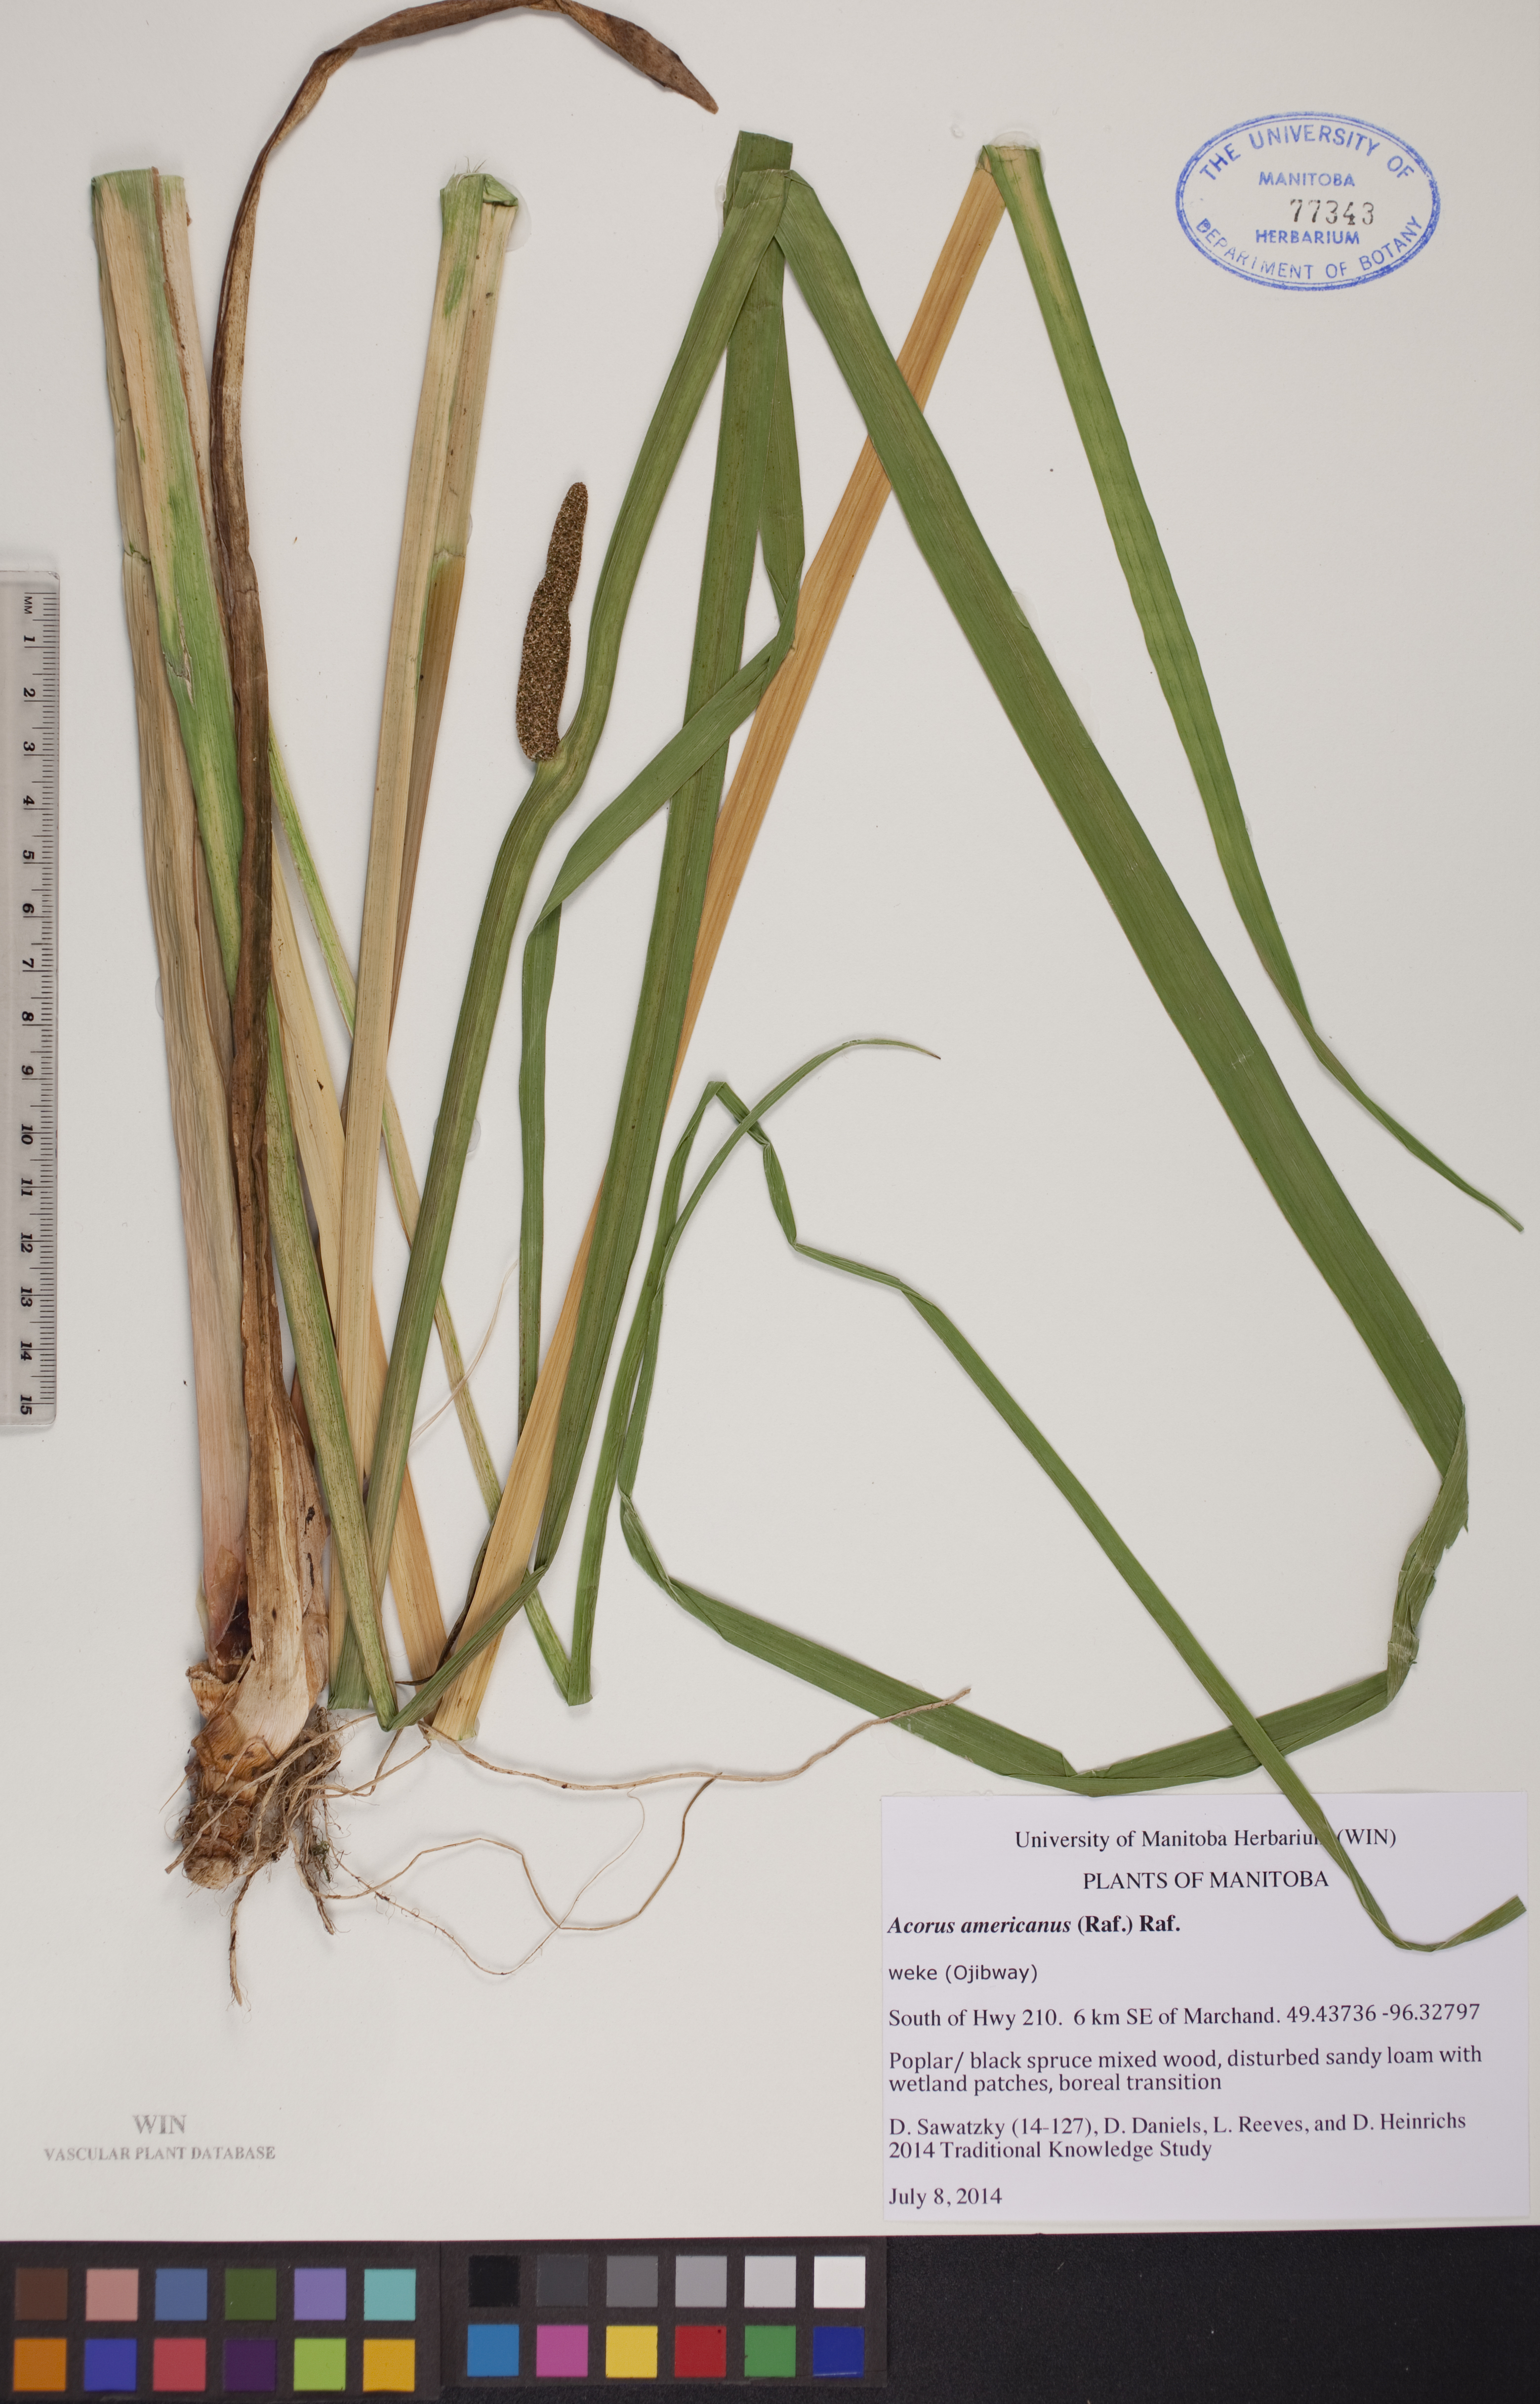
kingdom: Plantae
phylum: Tracheophyta
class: Liliopsida
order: Acorales
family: Acoraceae
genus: Acorus
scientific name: Acorus calamus
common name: Sweet-flag
